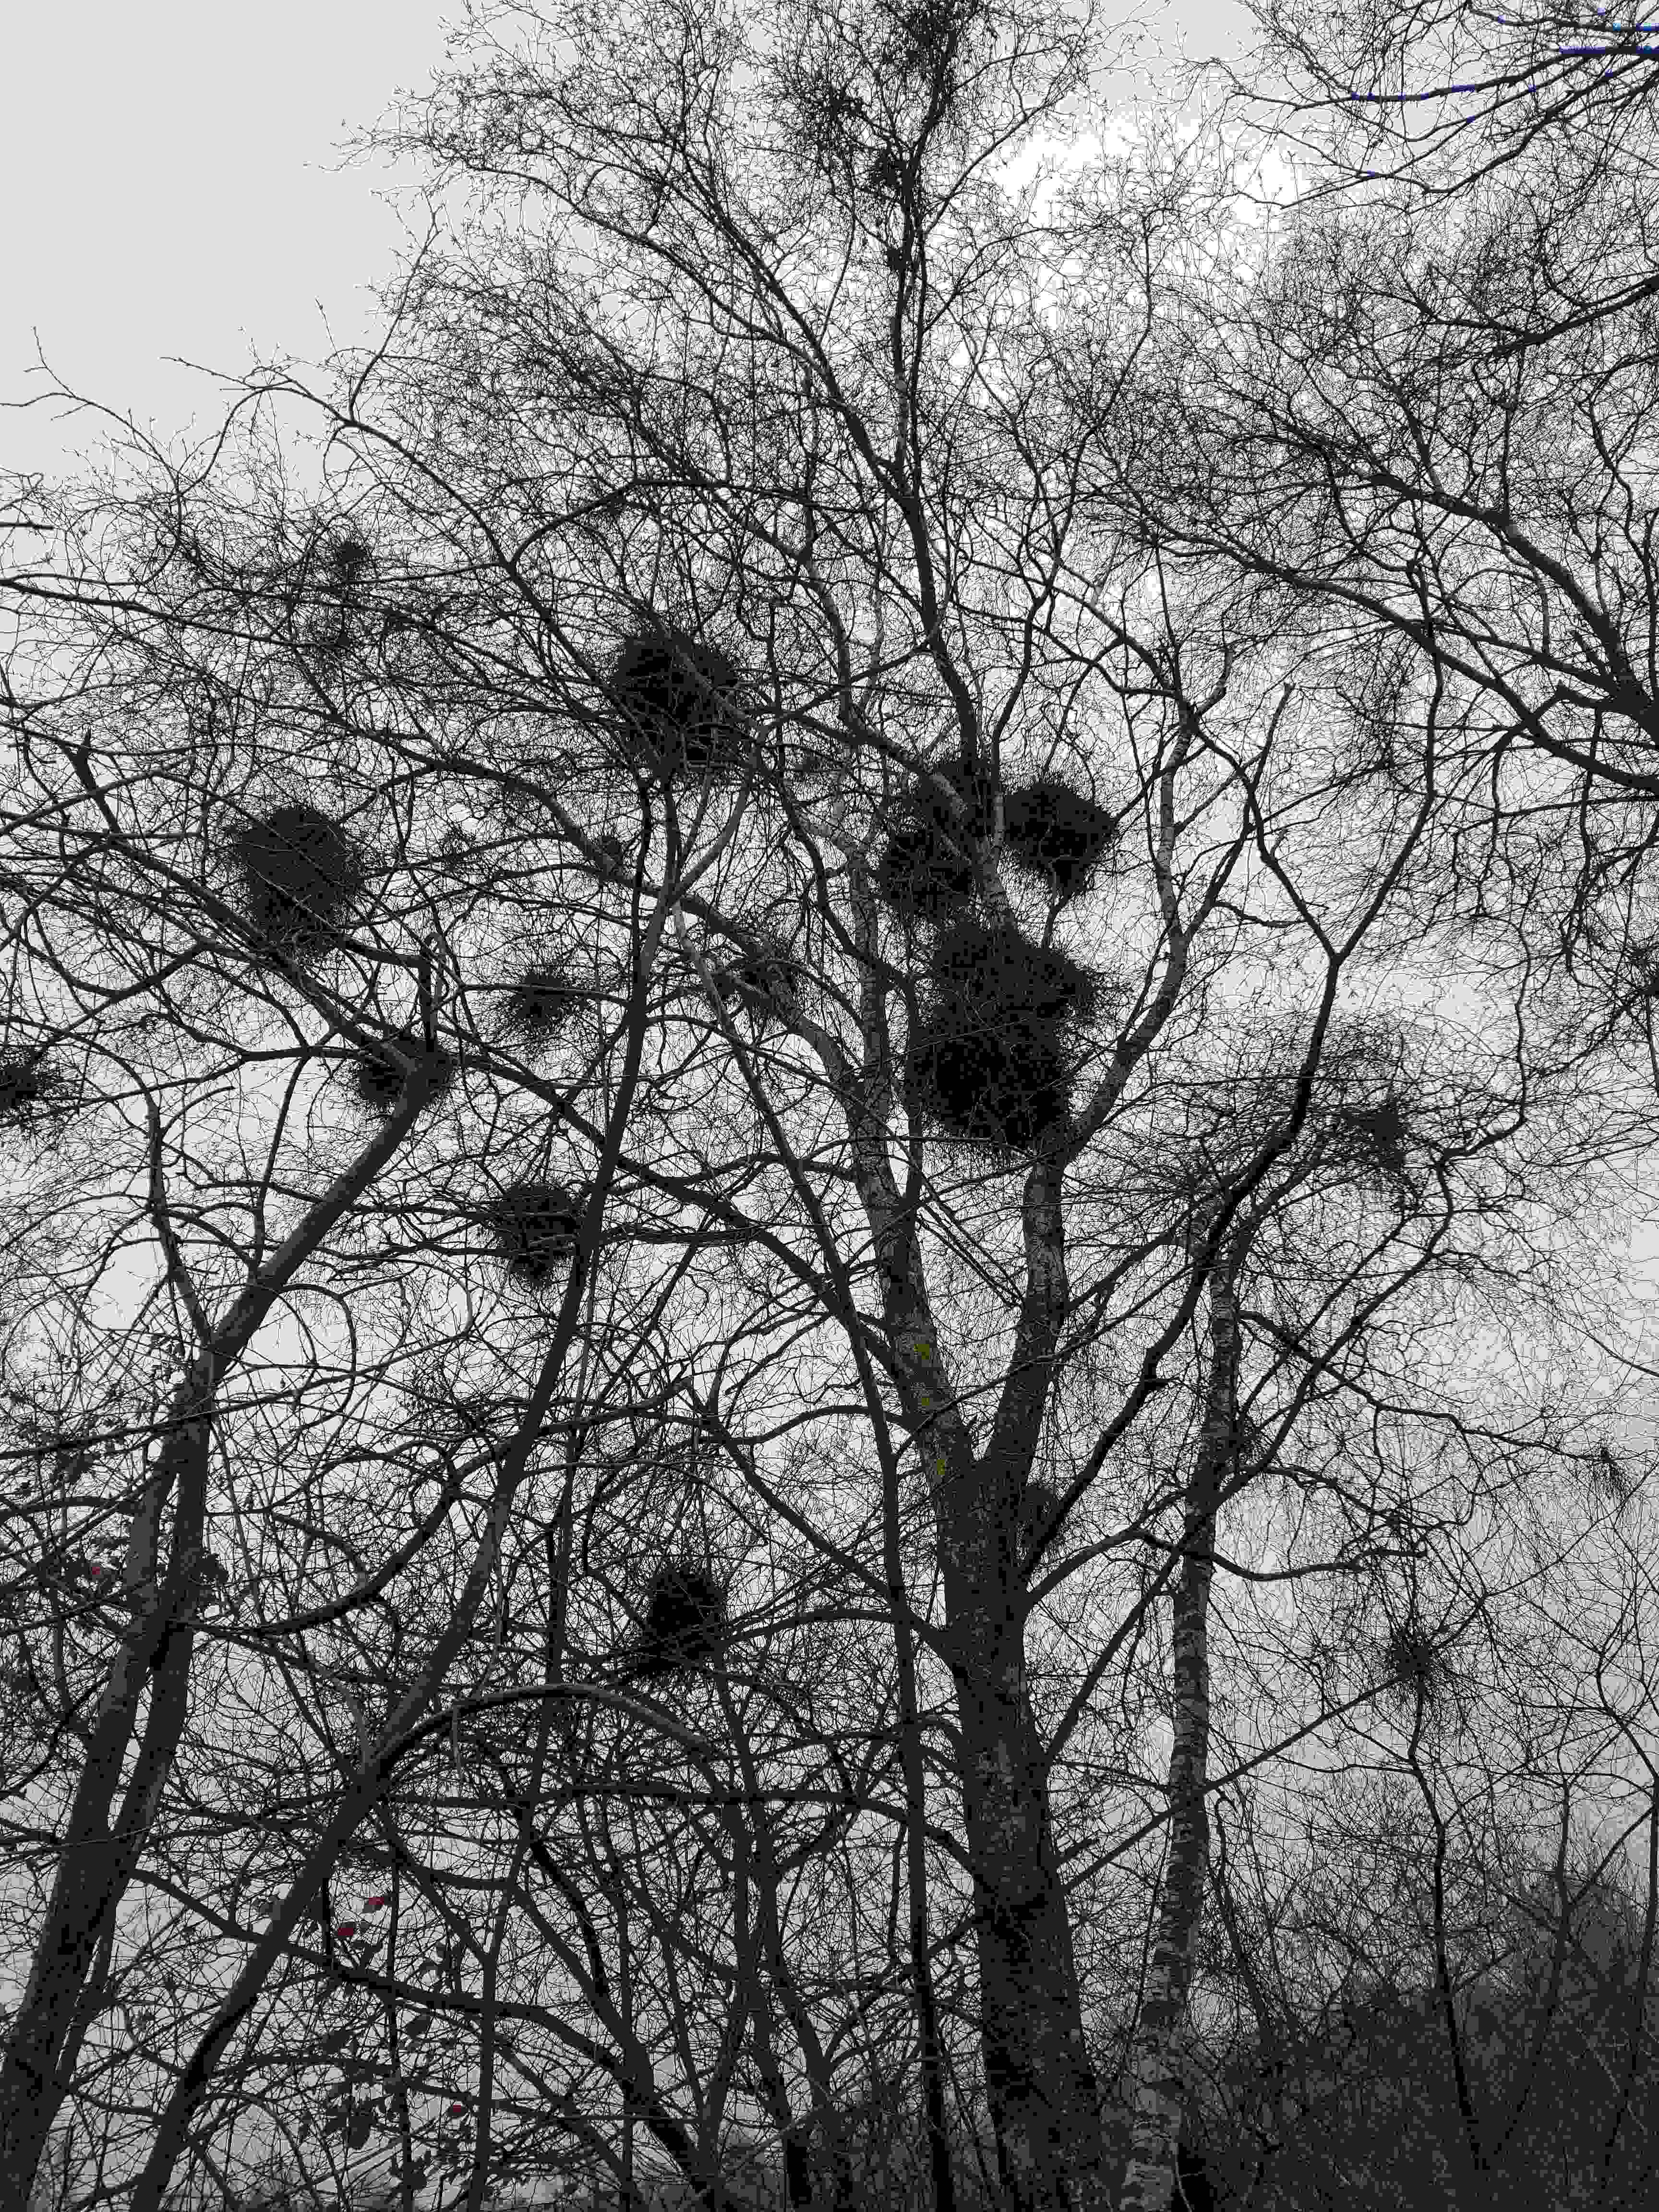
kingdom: Fungi
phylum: Ascomycota
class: Taphrinomycetes
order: Taphrinales
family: Taphrinaceae
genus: Taphrina
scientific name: Taphrina betulina
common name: hekse-sækdug
